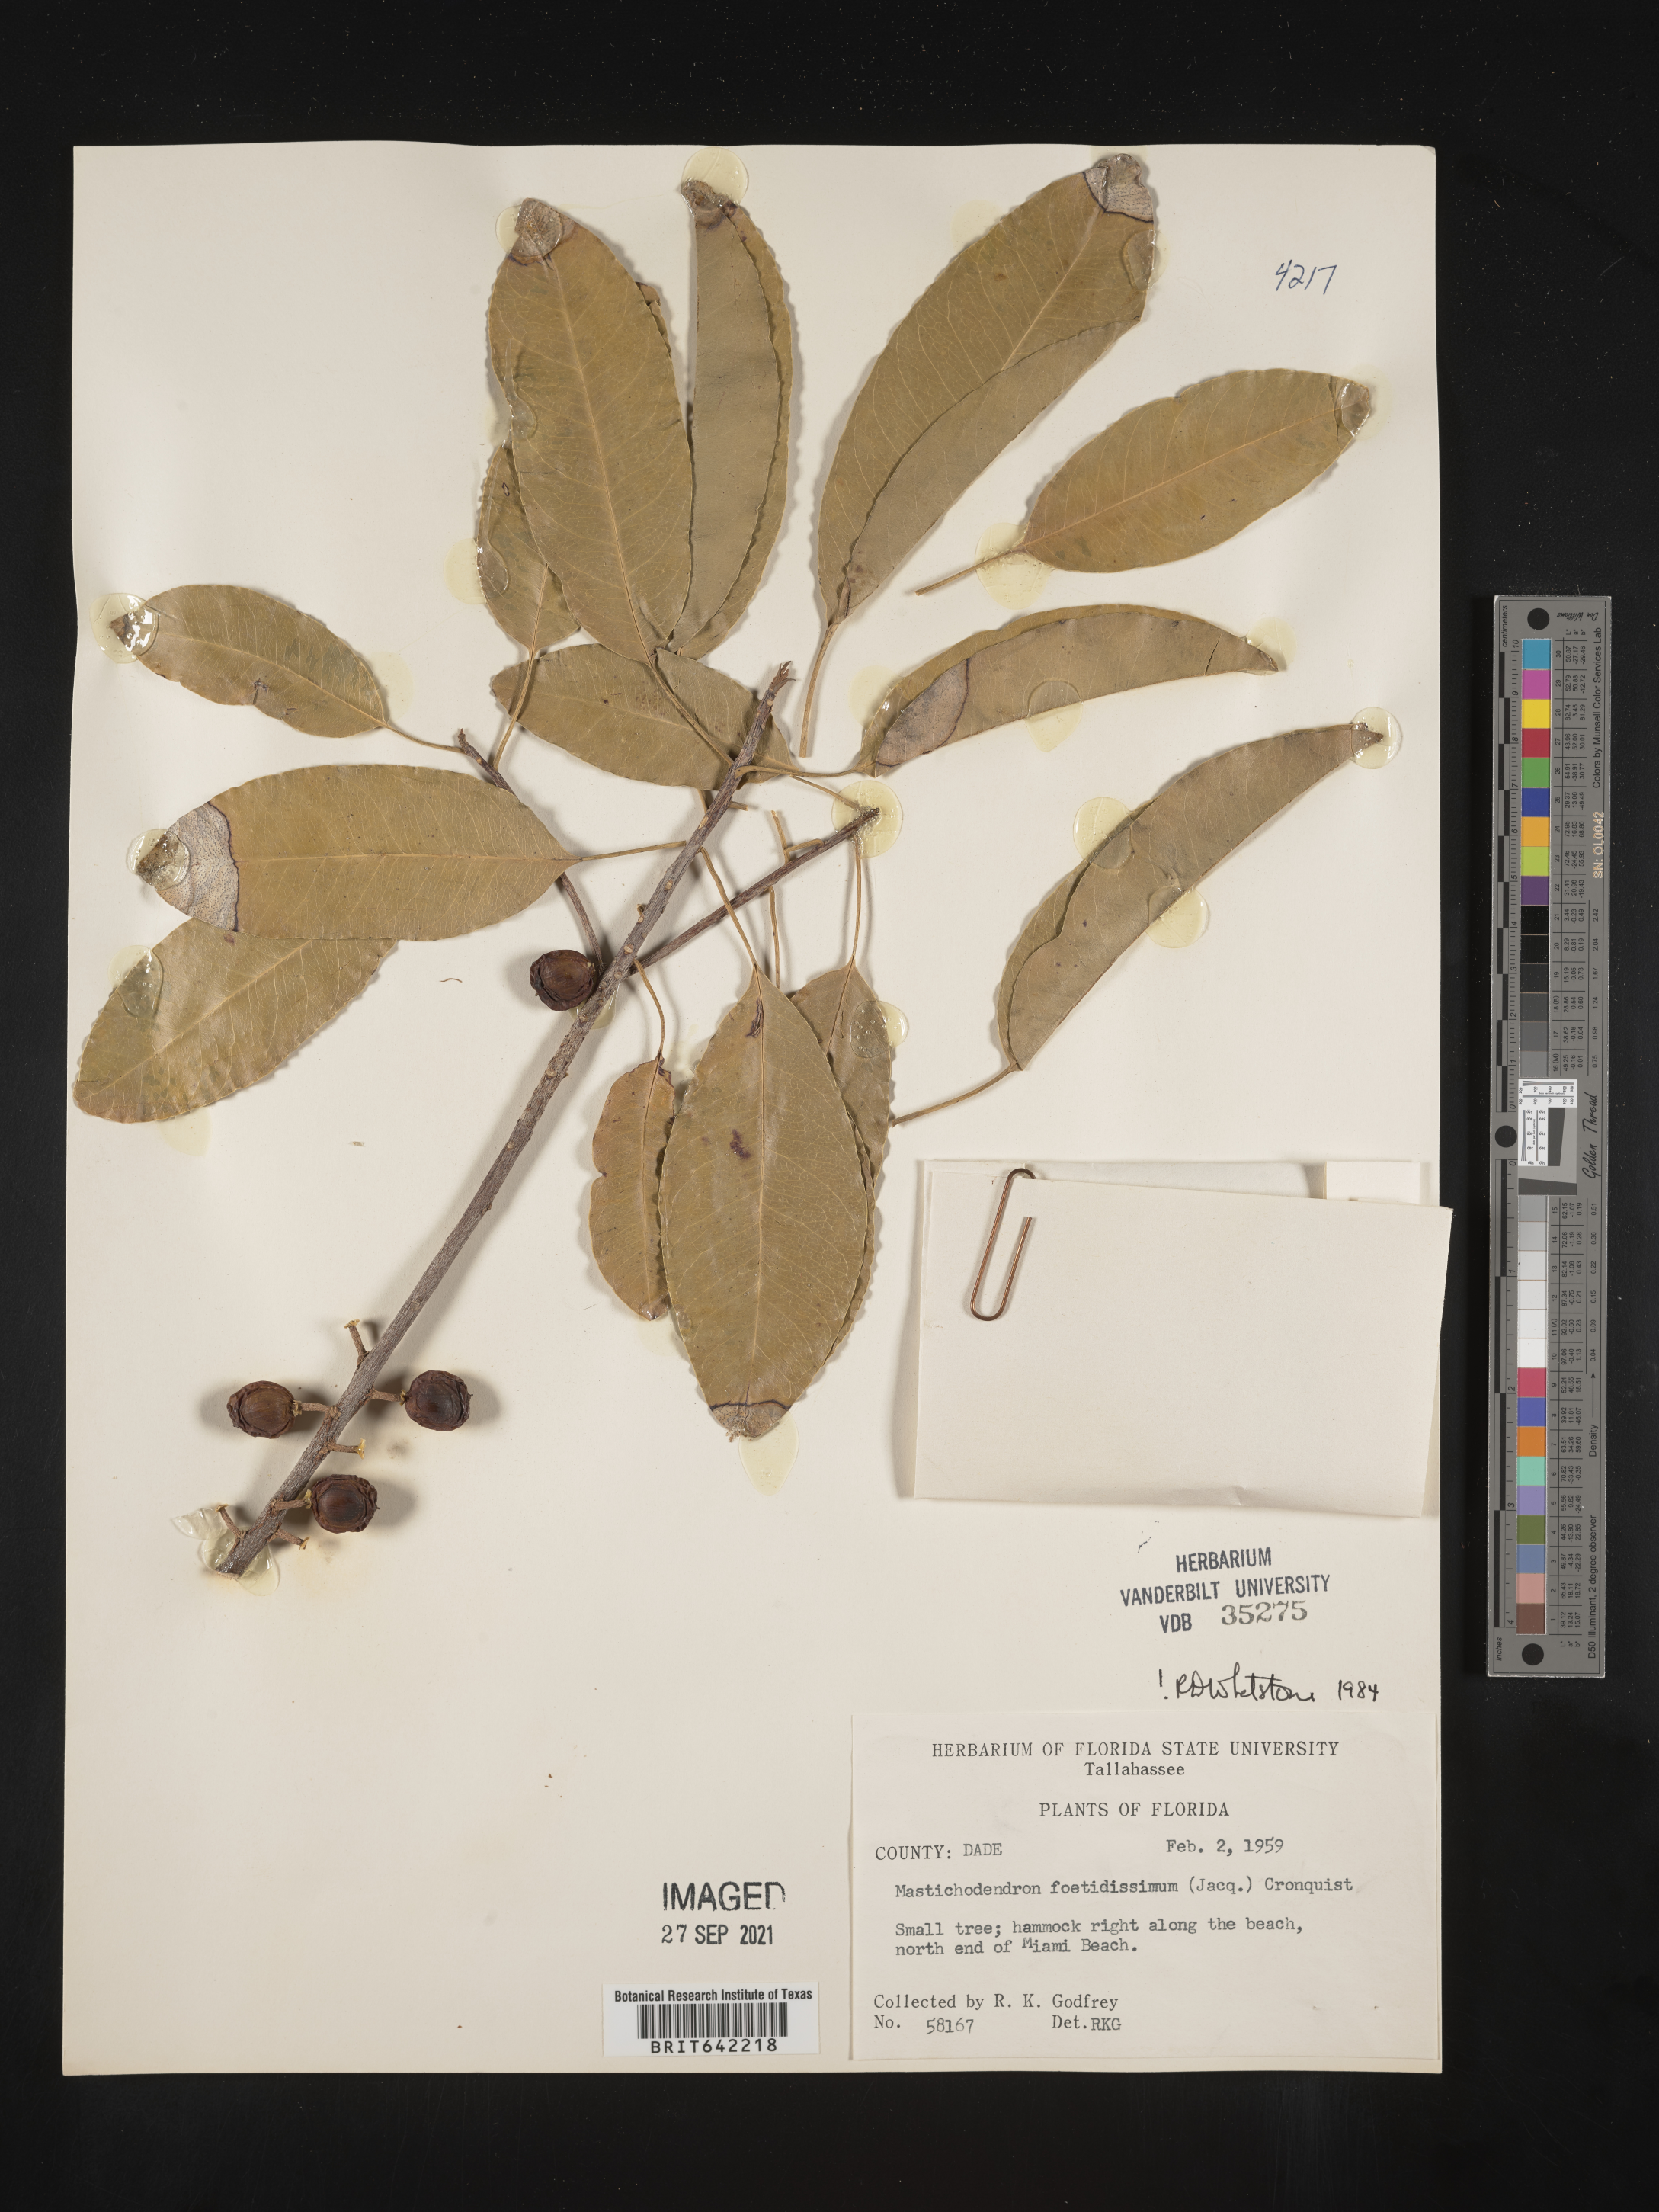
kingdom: Plantae
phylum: Tracheophyta
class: Magnoliopsida
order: Ericales
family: Sapotaceae
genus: Sideroxylon
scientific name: Sideroxylon foetidissimum
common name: Barbados-mastic
